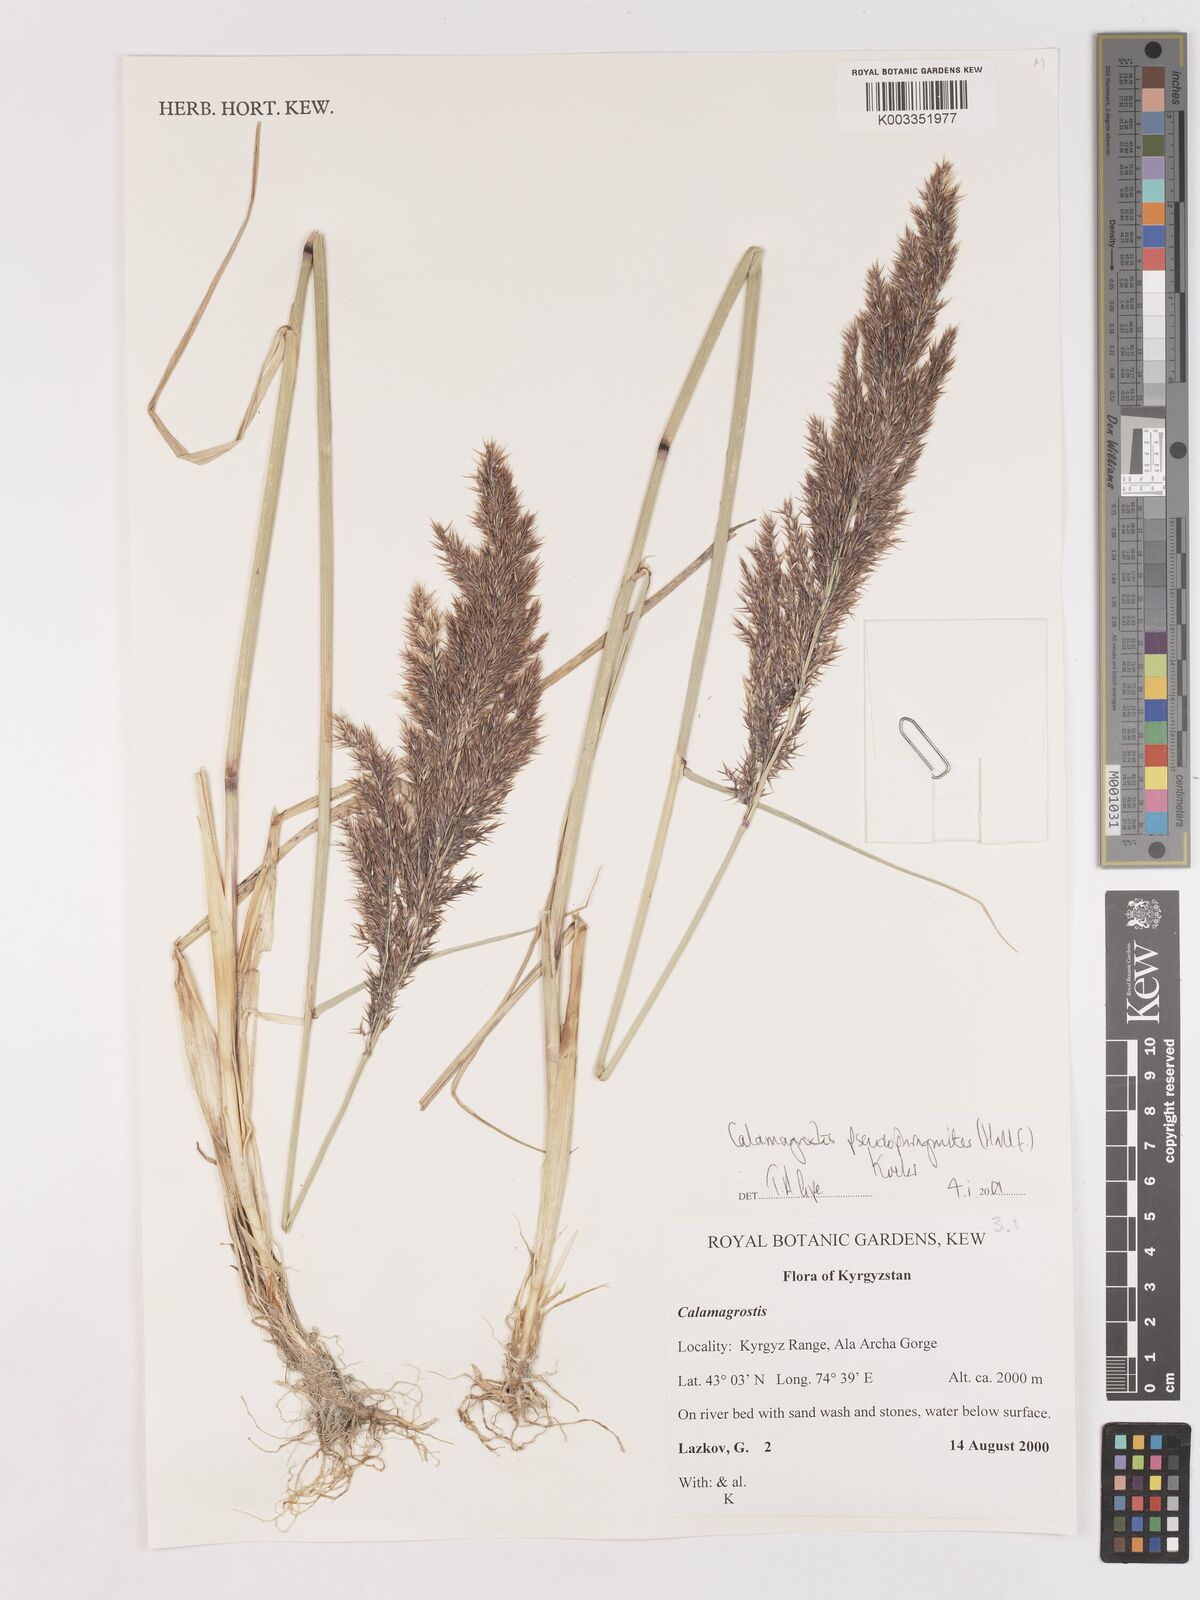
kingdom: Plantae
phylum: Tracheophyta
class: Liliopsida
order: Poales
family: Poaceae
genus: Calamagrostis
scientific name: Calamagrostis pseudophragmites
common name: Coastal small-reed
